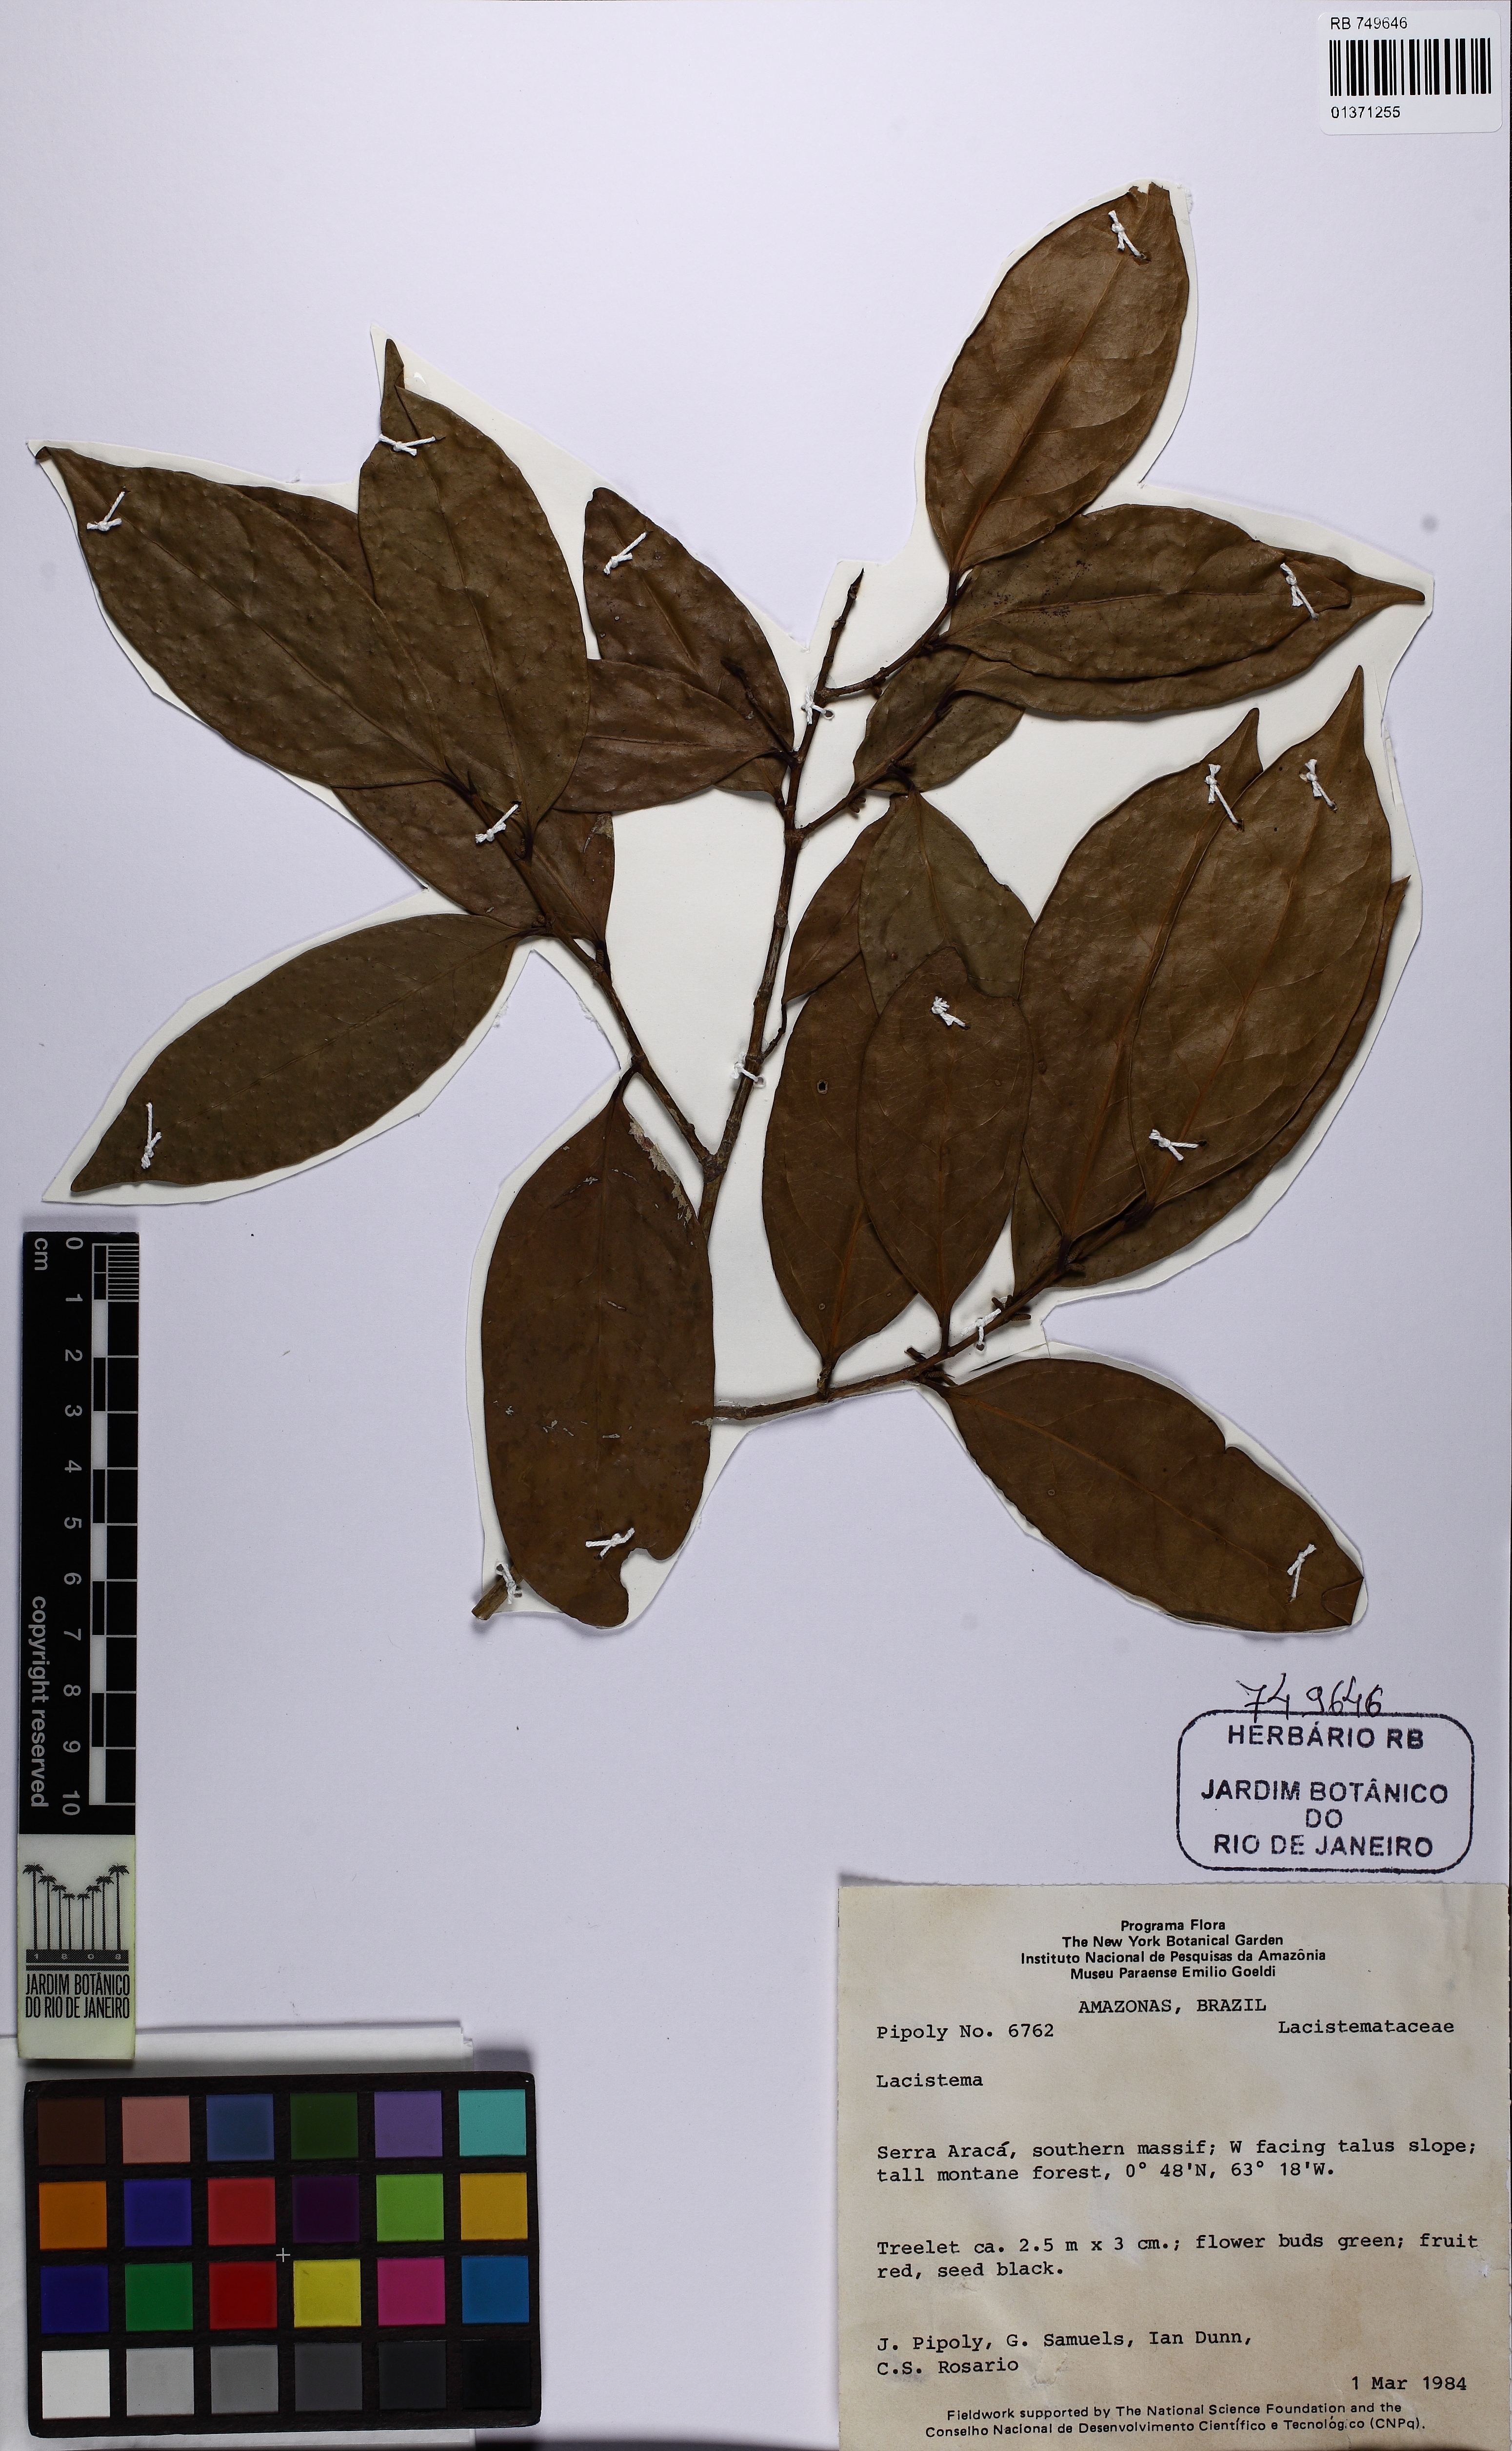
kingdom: Plantae
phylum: Tracheophyta
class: Magnoliopsida
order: Malpighiales
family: Lacistemataceae
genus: Lacistema
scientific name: Lacistema
